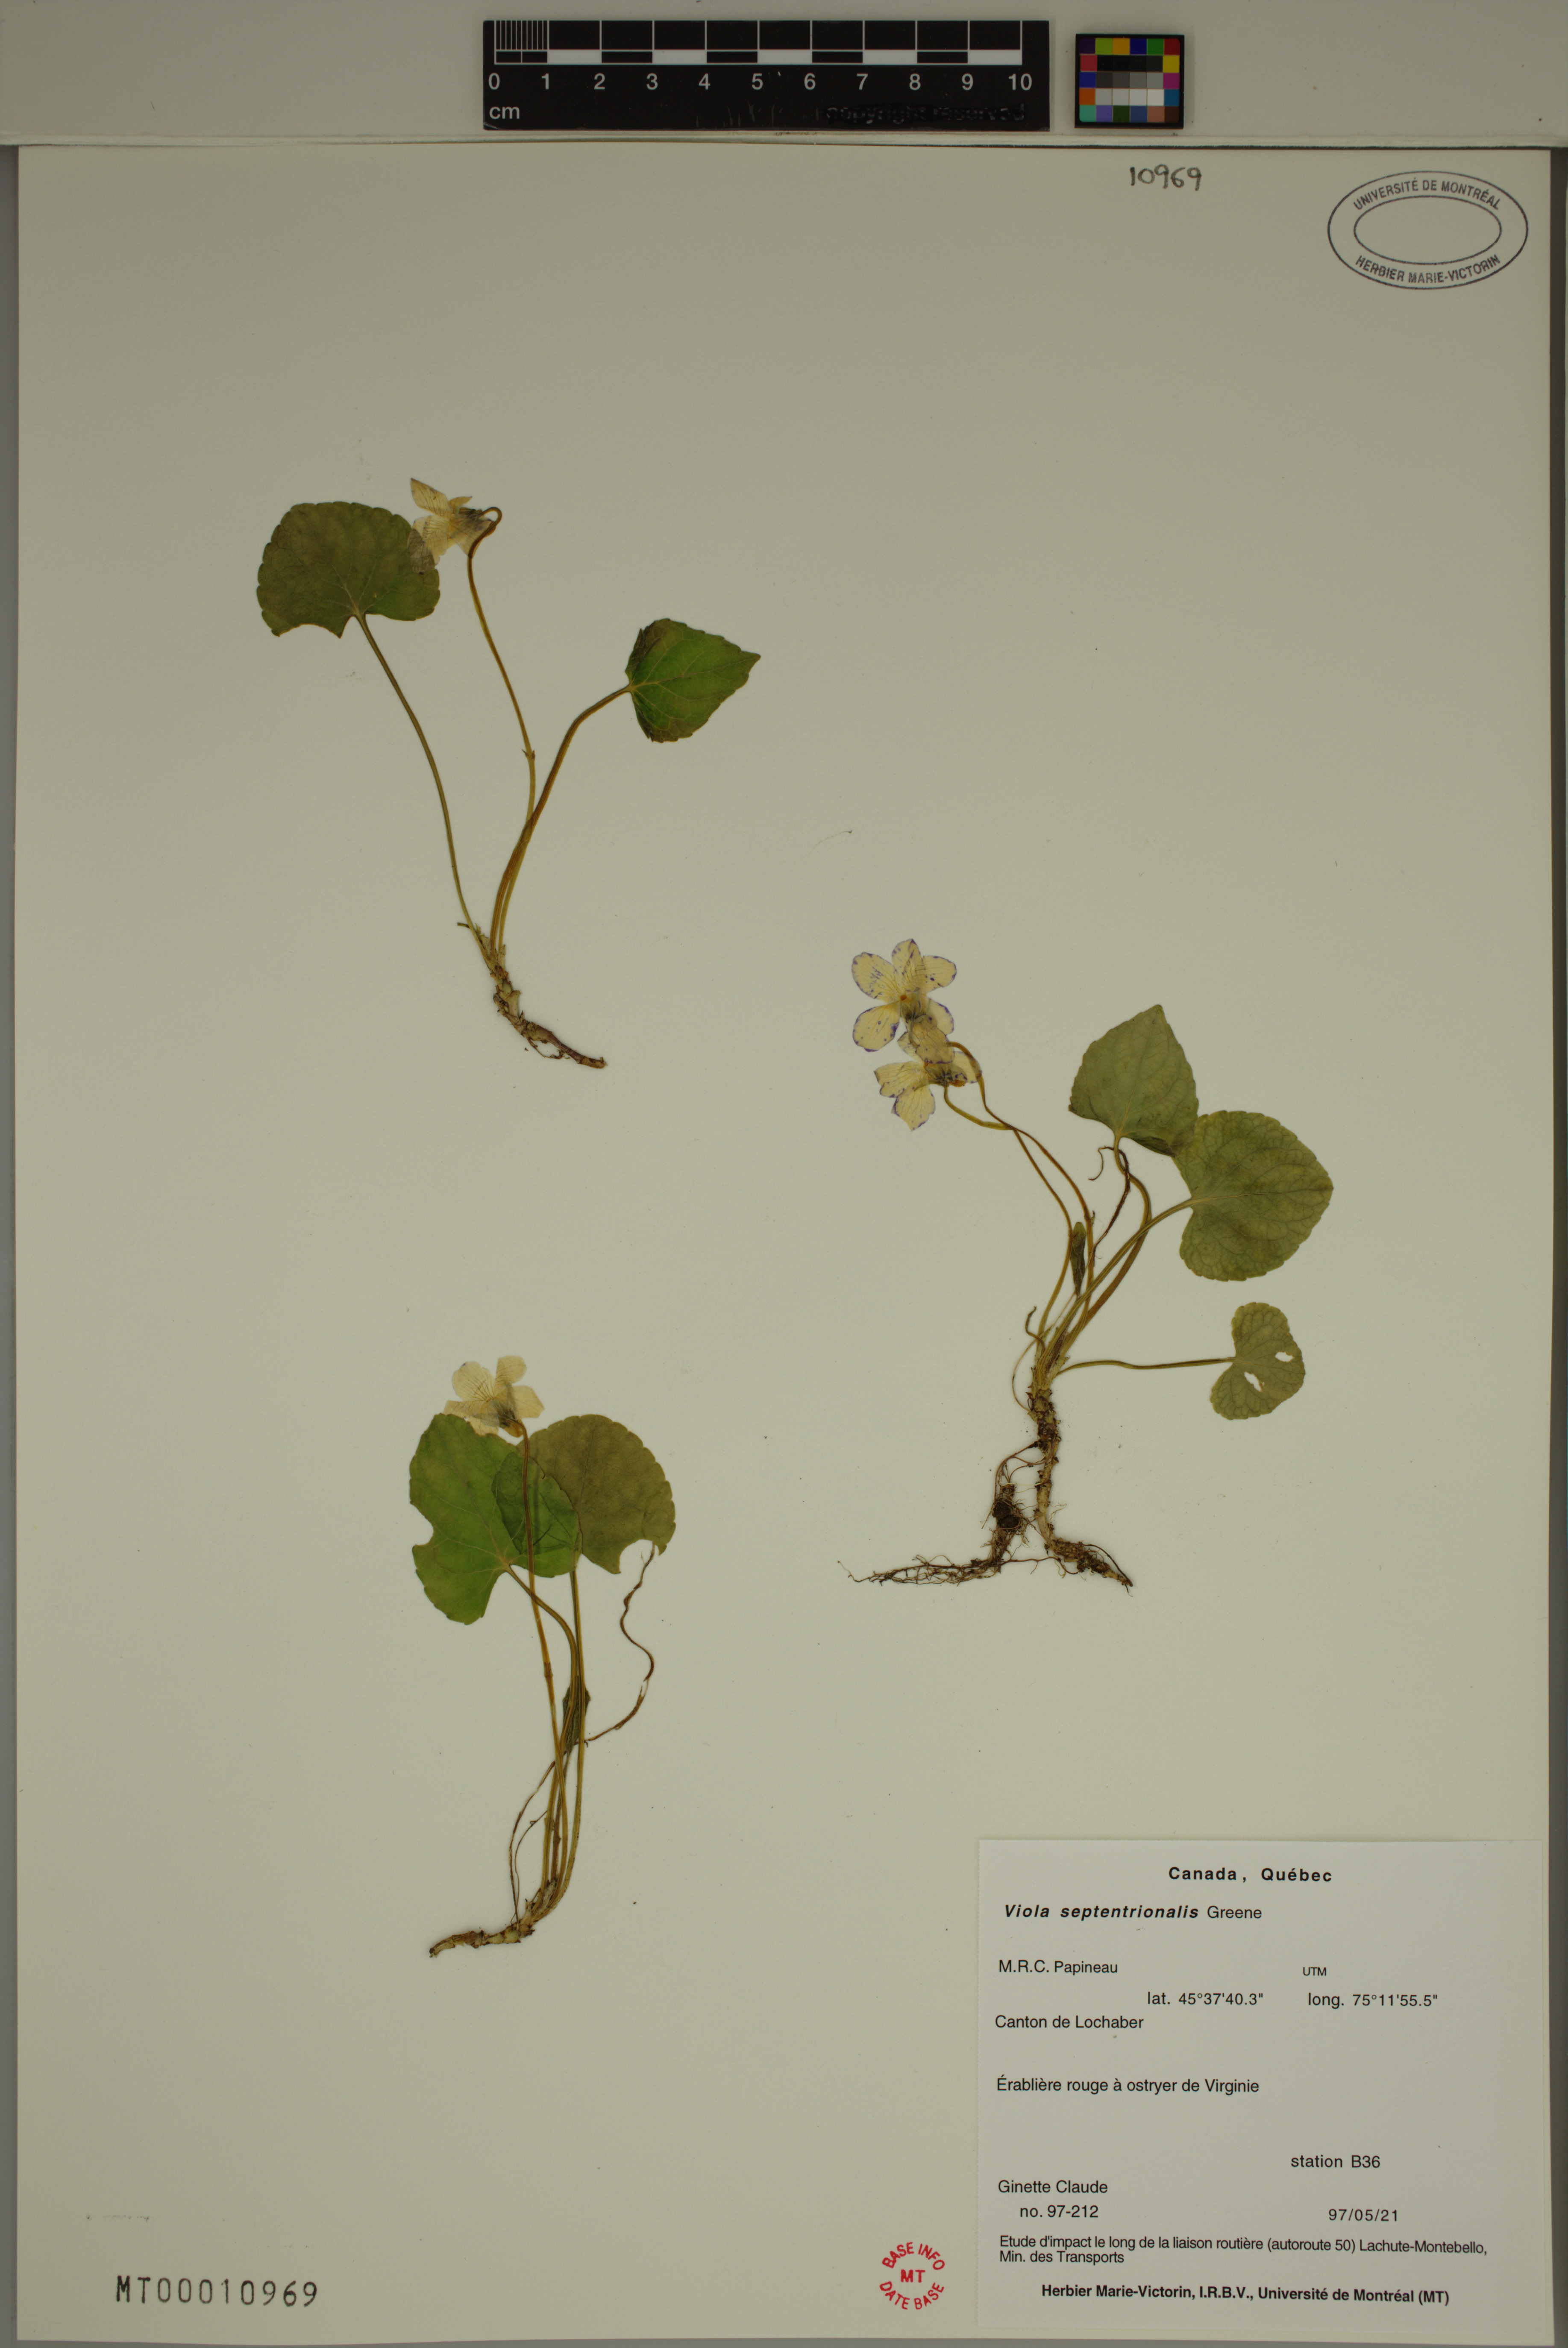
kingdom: Plantae
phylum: Tracheophyta
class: Magnoliopsida
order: Malpighiales
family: Violaceae
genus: Viola
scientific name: Viola sororia
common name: Dooryard violet
